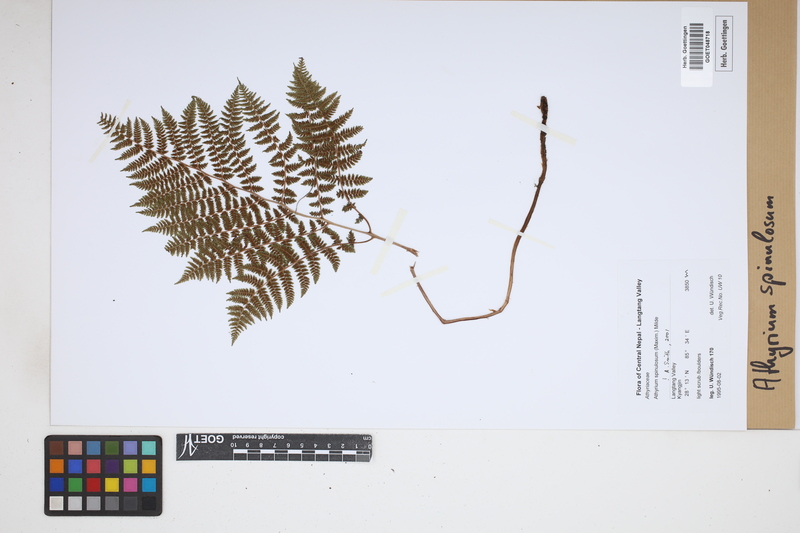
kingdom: Plantae
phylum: Tracheophyta
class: Polypodiopsida
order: Polypodiales
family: Athyriaceae
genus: Athyrium
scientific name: Athyrium spinulosum
